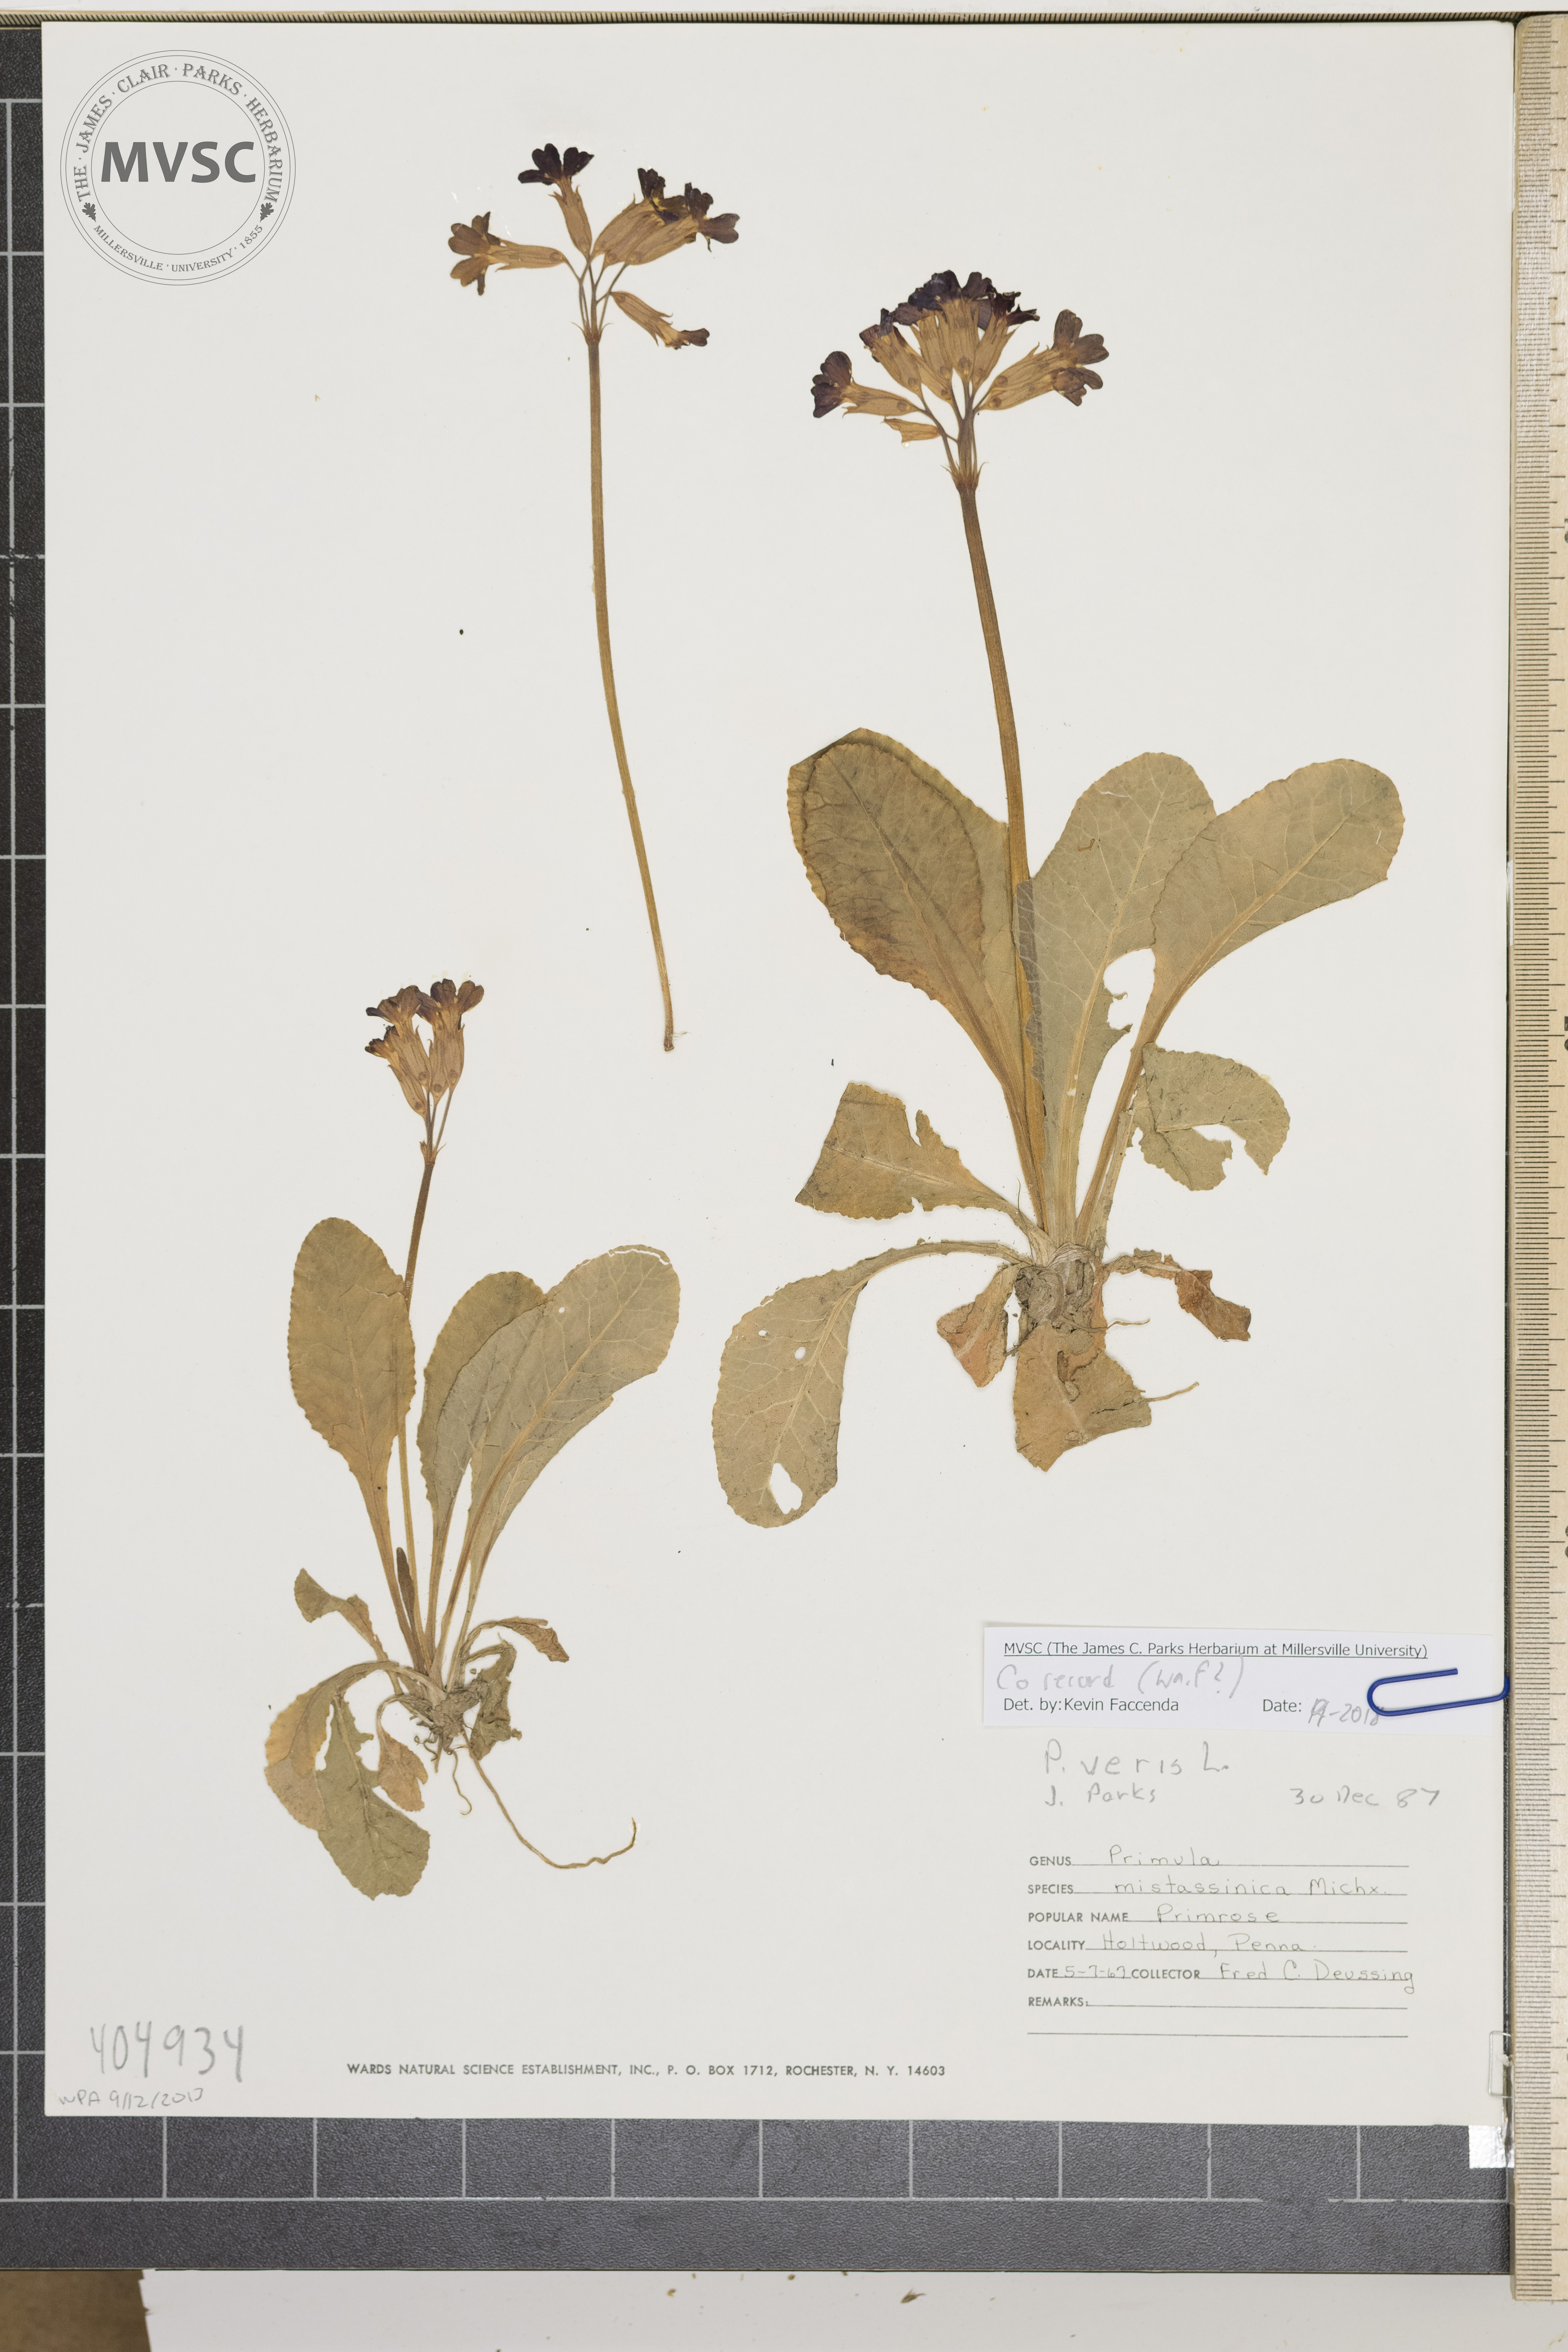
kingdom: Plantae
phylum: Tracheophyta
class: Magnoliopsida
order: Ericales
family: Primulaceae
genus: Primula
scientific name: Primula veris
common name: Primrose
